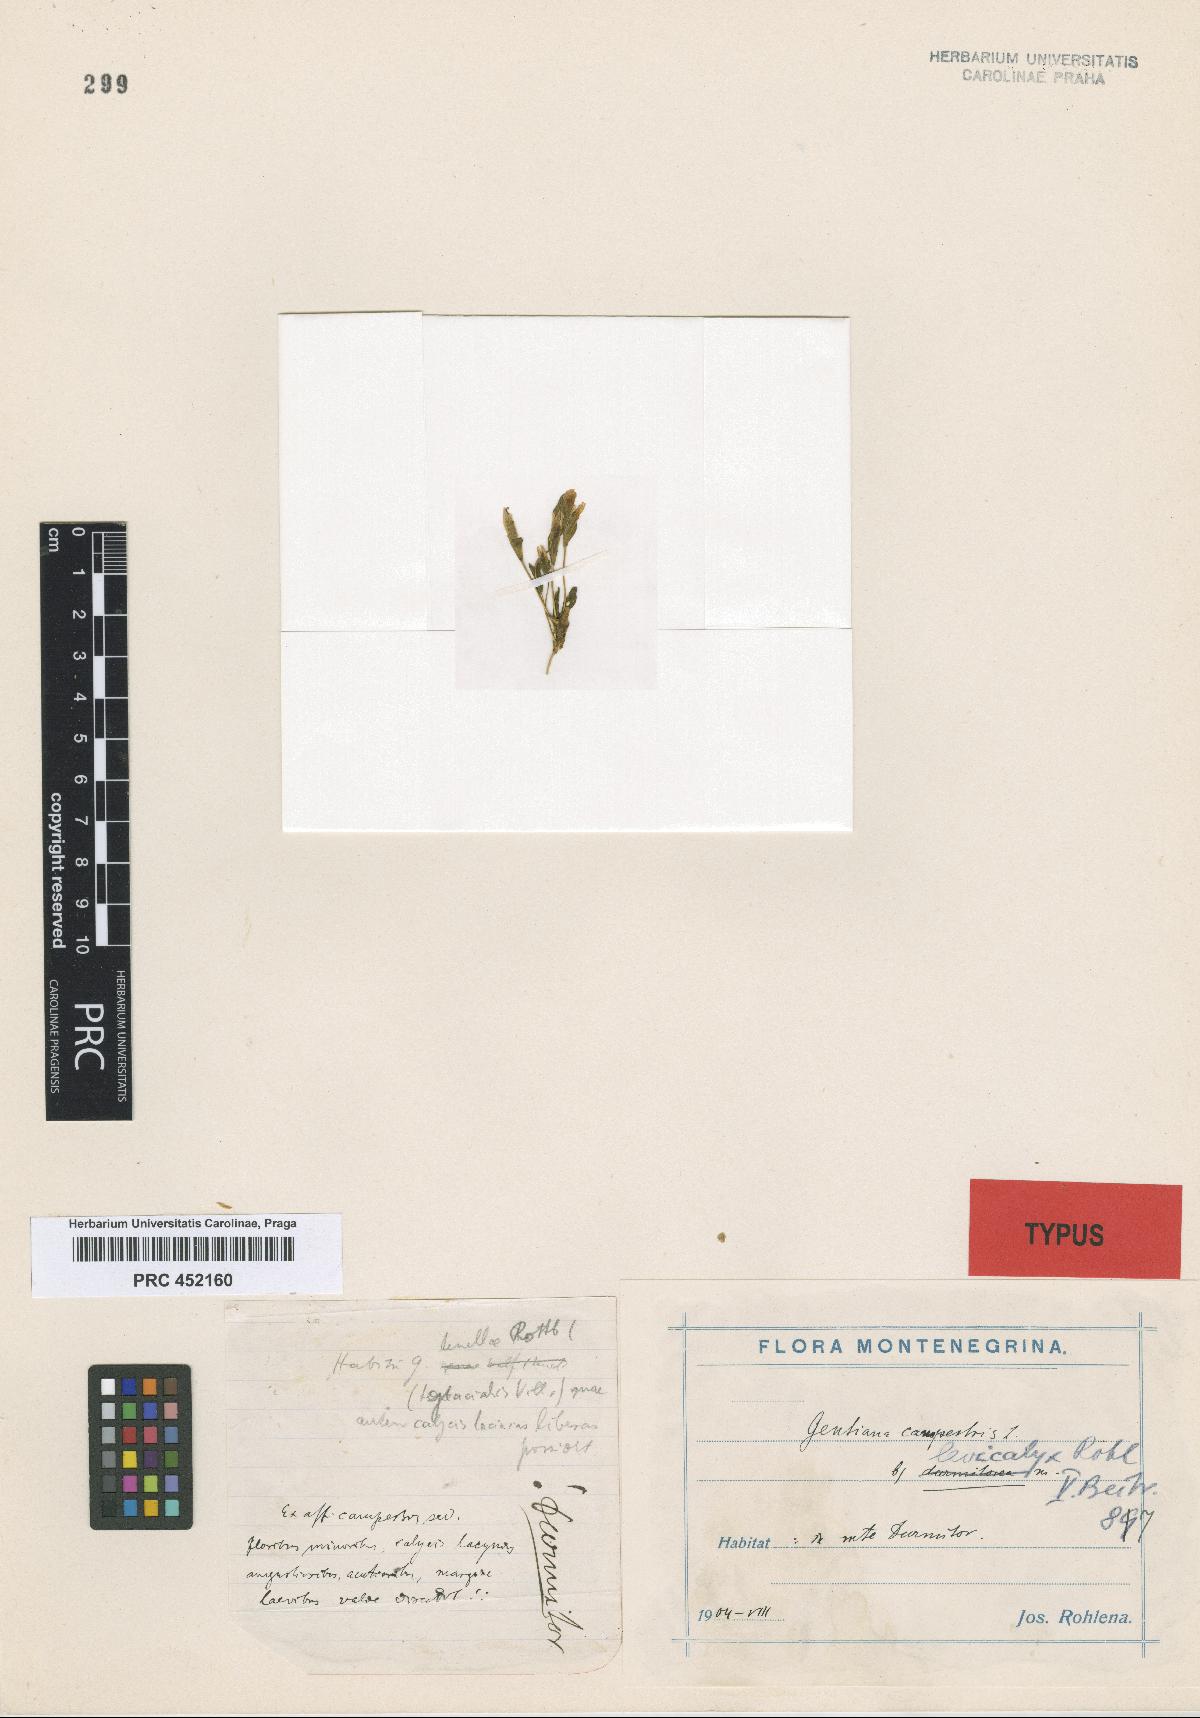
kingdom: Plantae
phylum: Tracheophyta
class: Magnoliopsida
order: Gentianales
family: Gentianaceae
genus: Gentianella
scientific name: Gentianella laevicalyx
